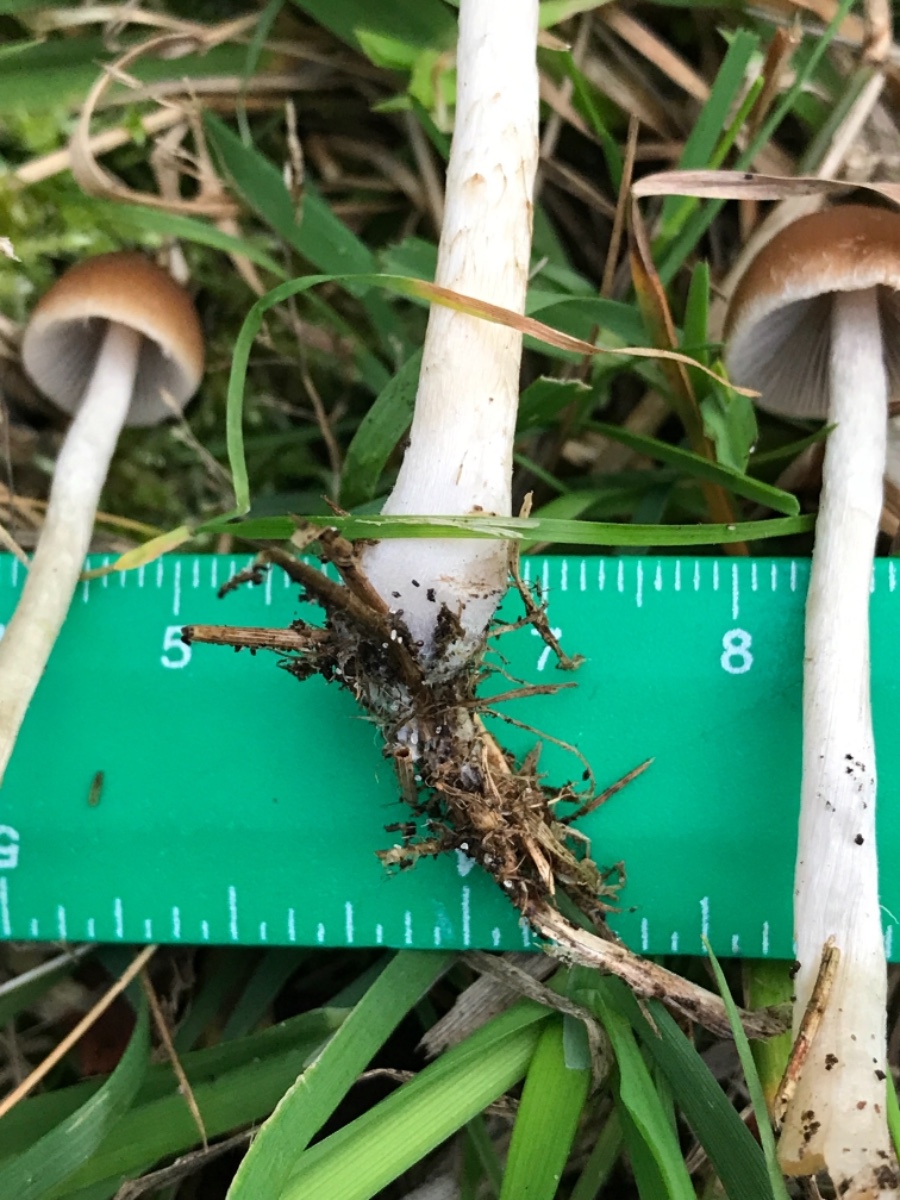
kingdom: Fungi
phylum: Basidiomycota
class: Agaricomycetes
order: Agaricales
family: Psathyrellaceae
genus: Psathyrella
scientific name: Psathyrella
